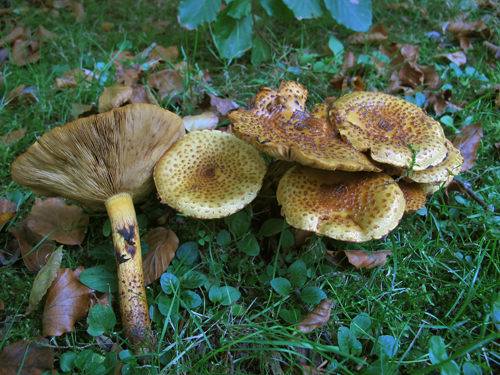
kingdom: Fungi
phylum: Basidiomycota
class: Agaricomycetes
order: Agaricales
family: Strophariaceae
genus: Pholiota
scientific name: Pholiota jahnii
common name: slimet skælhat
